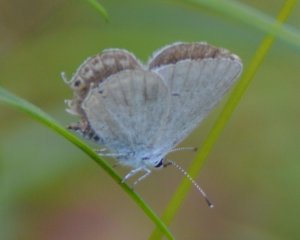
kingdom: Animalia
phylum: Arthropoda
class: Insecta
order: Lepidoptera
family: Lycaenidae
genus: Elkalyce
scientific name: Elkalyce amyntula
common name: Western Tailed-Blue
